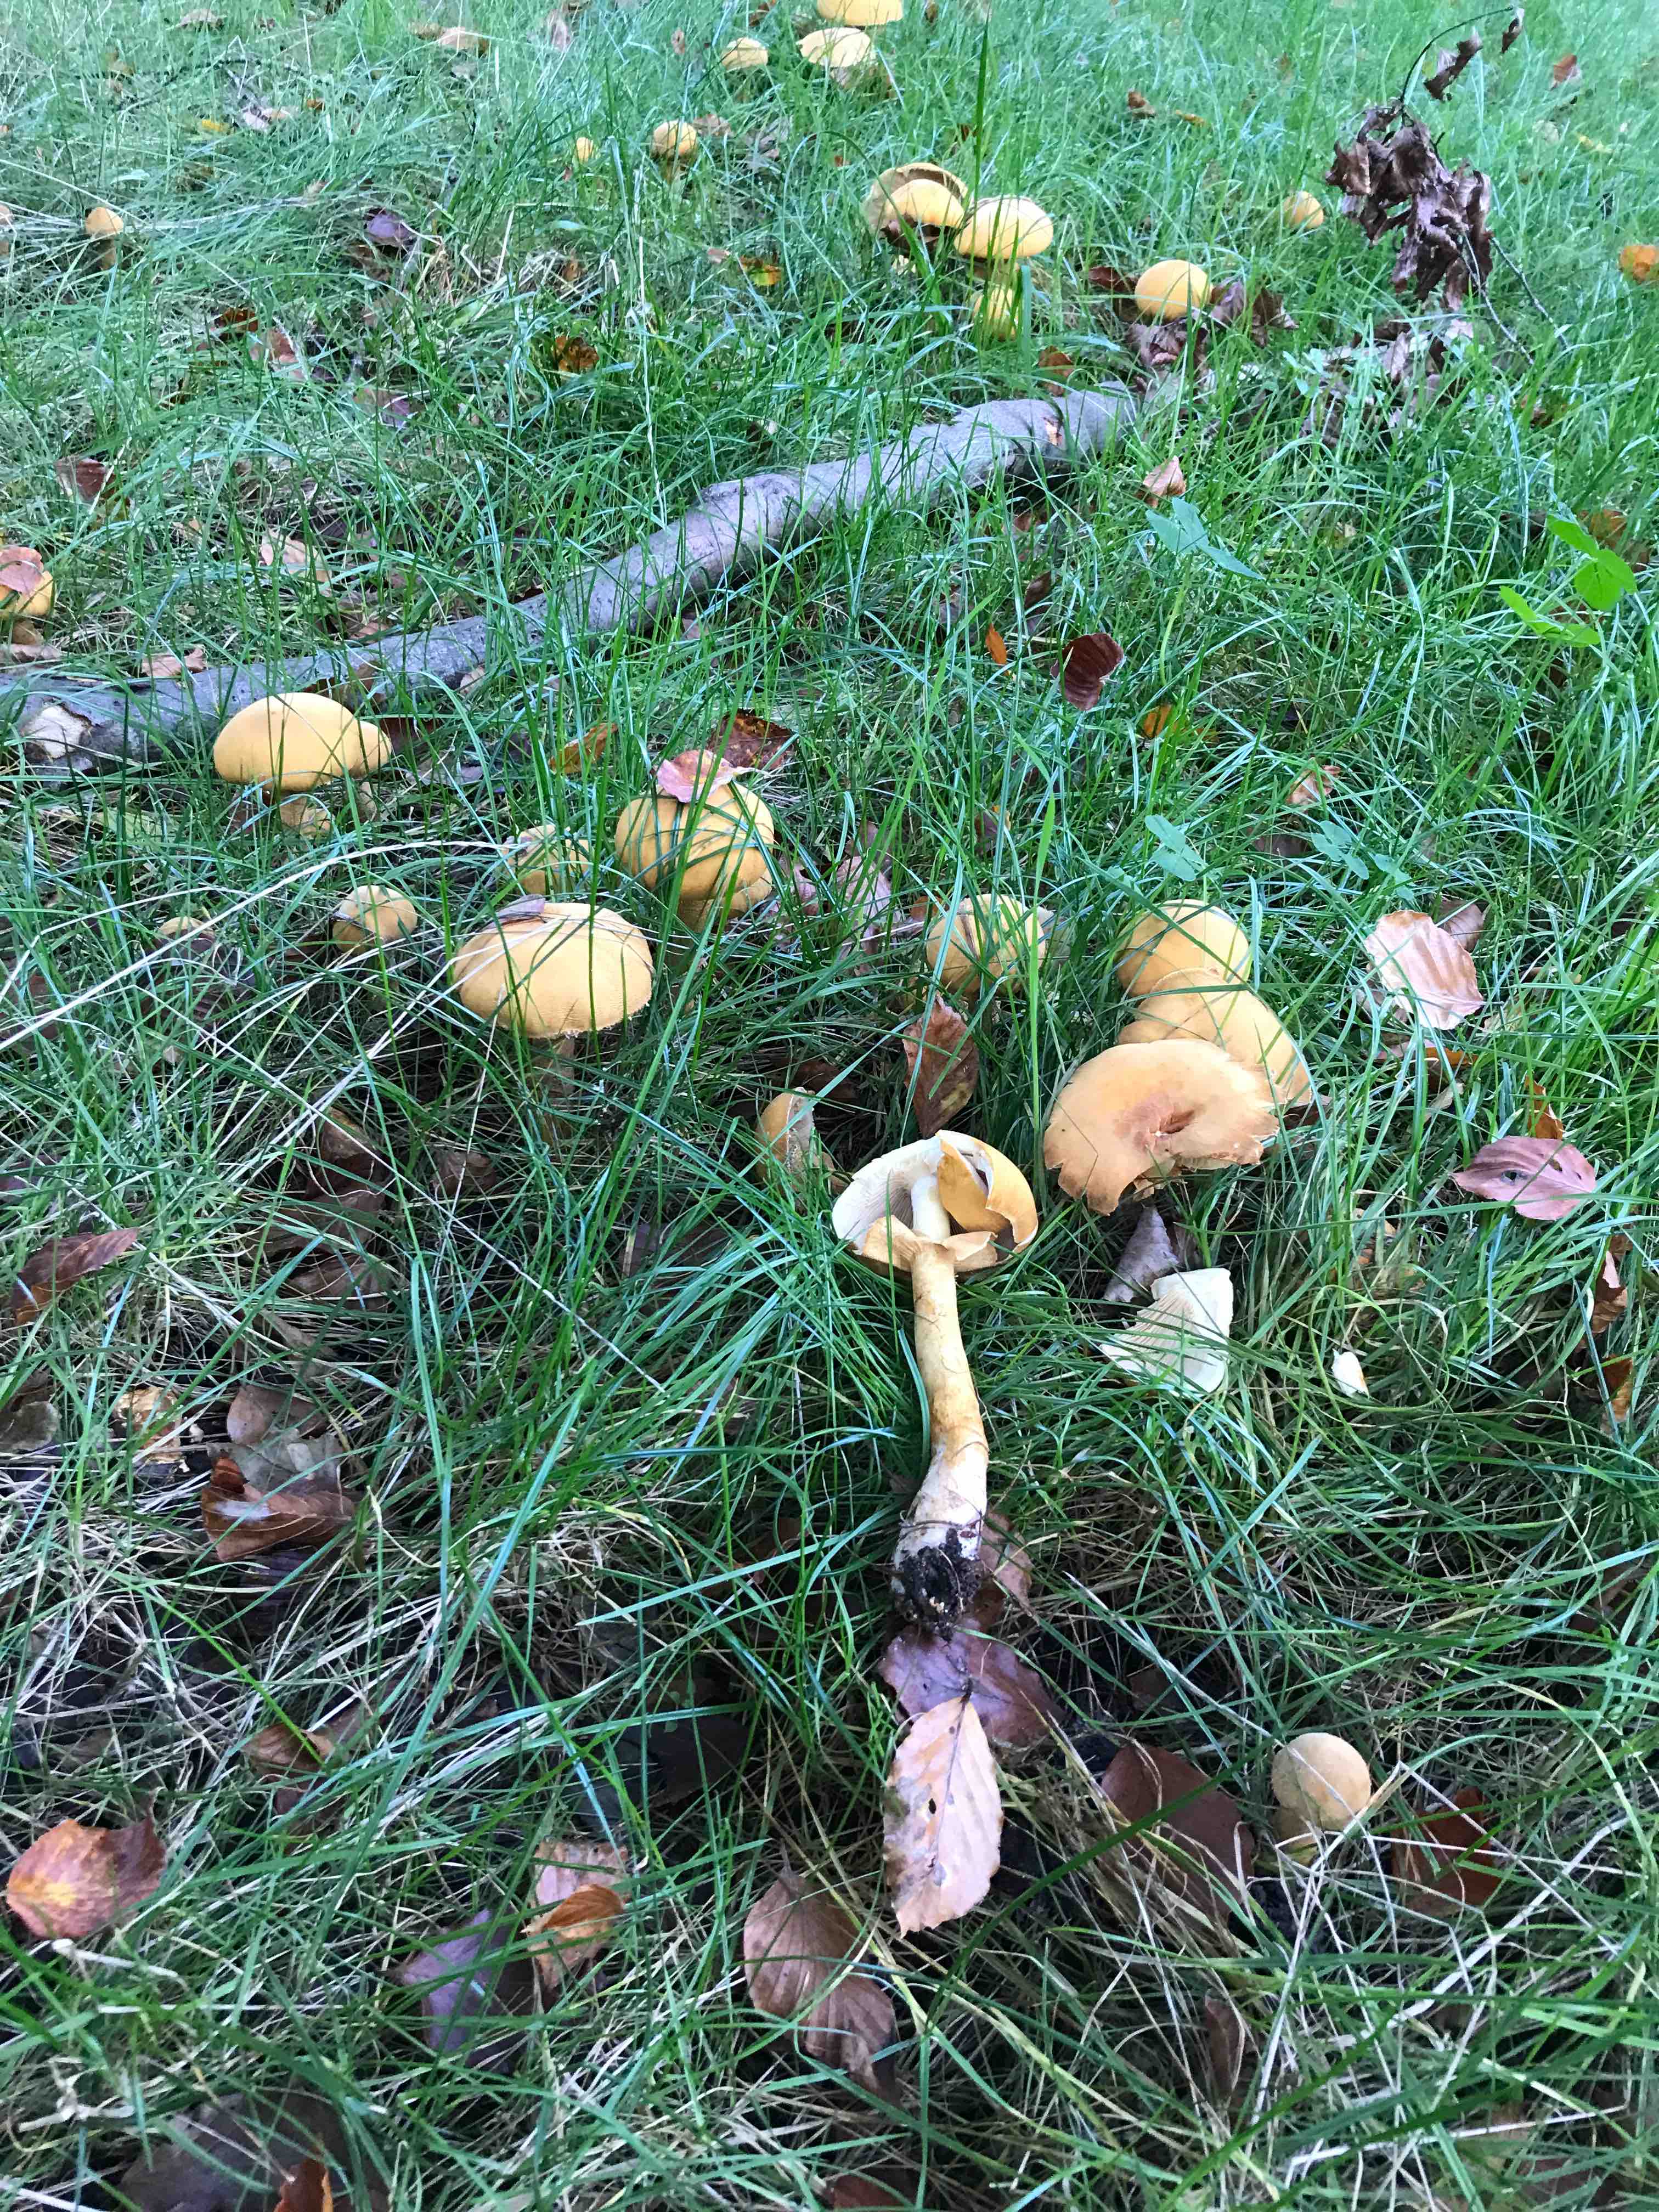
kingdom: Fungi
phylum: Basidiomycota
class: Agaricomycetes
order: Agaricales
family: Tricholomataceae
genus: Phaeolepiota
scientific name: Phaeolepiota aurea
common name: gyldenhat
